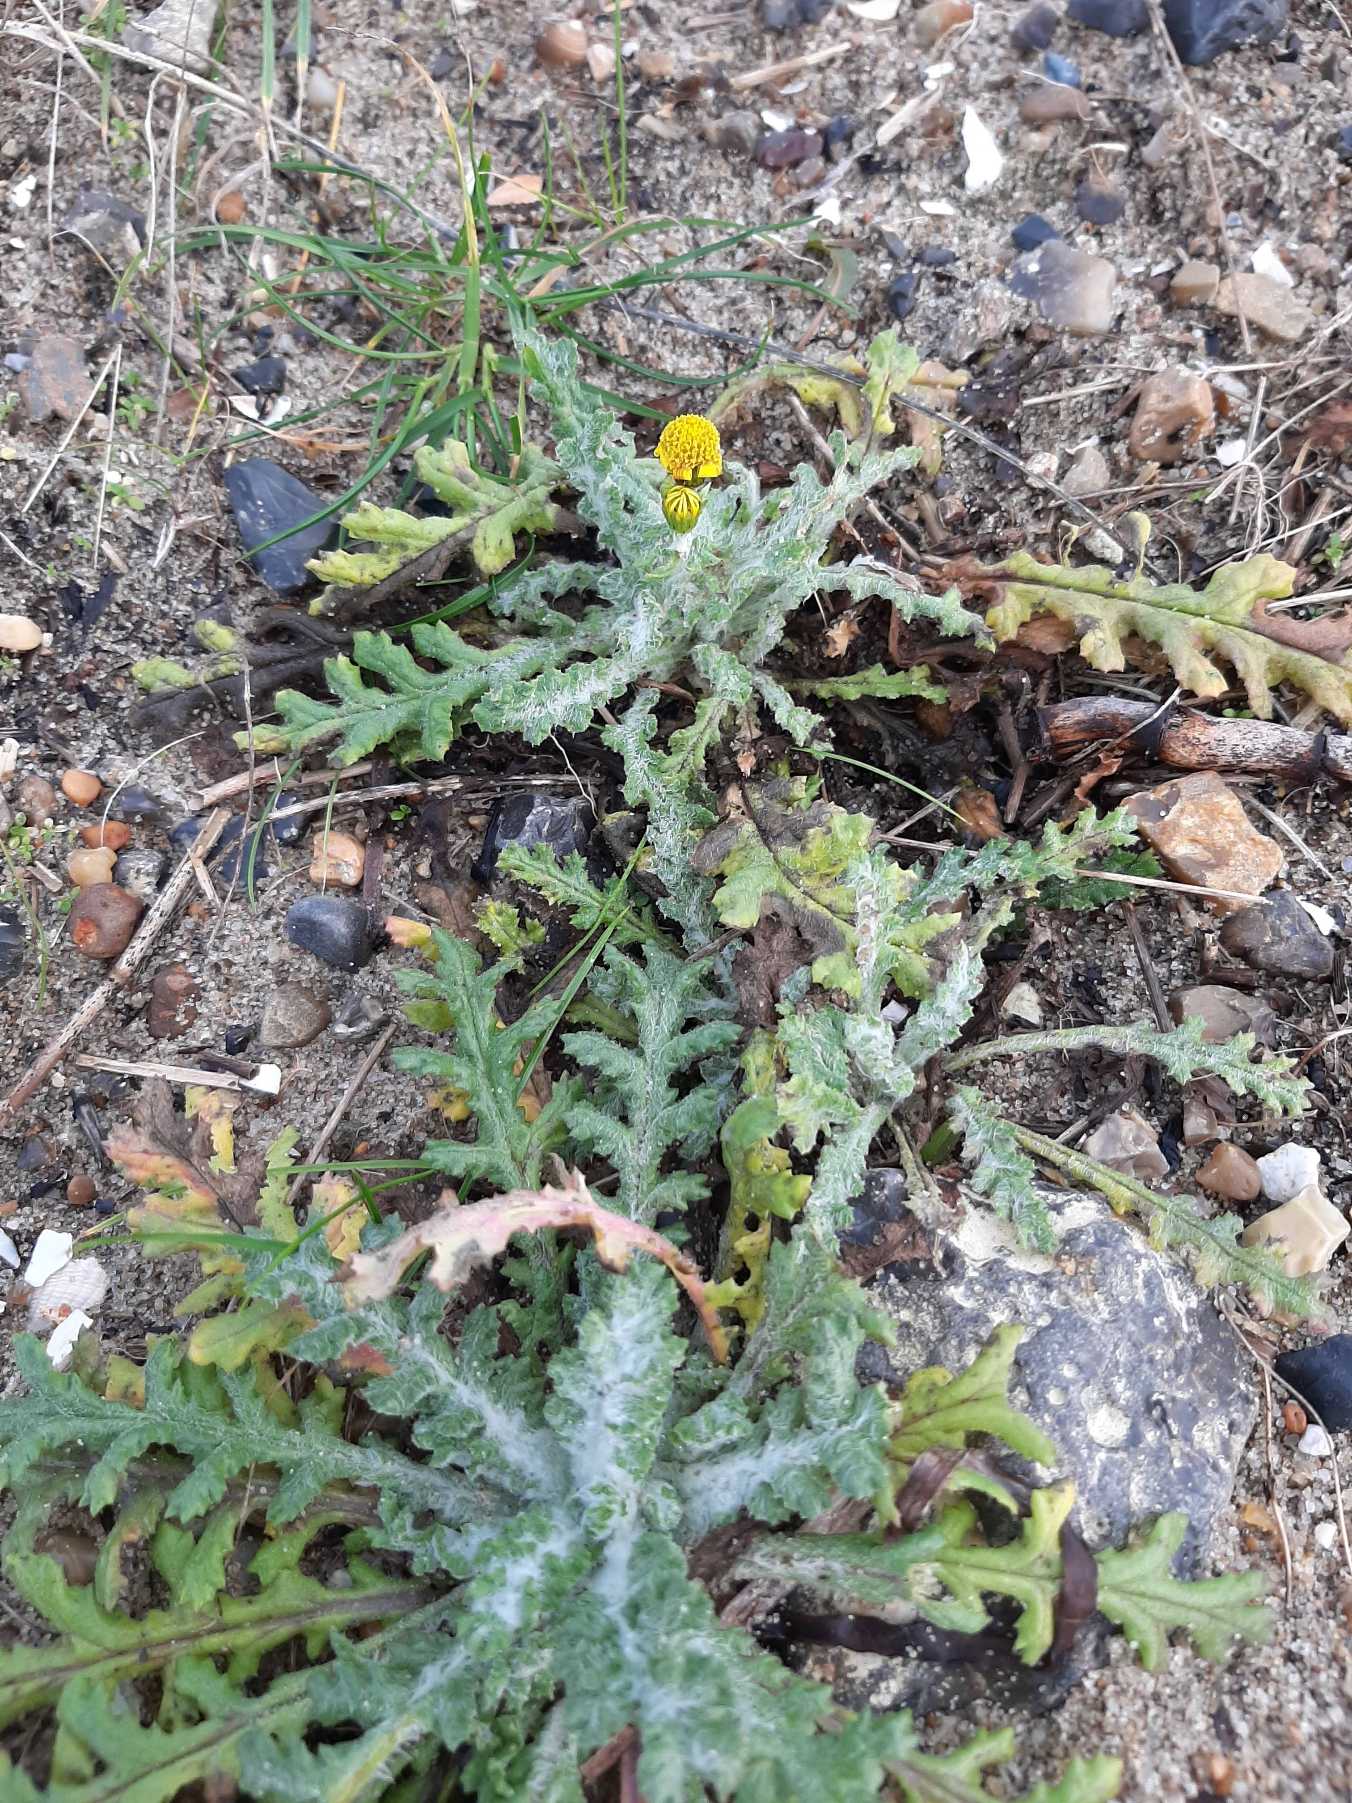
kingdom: Plantae
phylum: Tracheophyta
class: Magnoliopsida
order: Asterales
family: Asteraceae
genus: Senecio
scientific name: Senecio vulgaris
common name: Almindelig brandbæger
